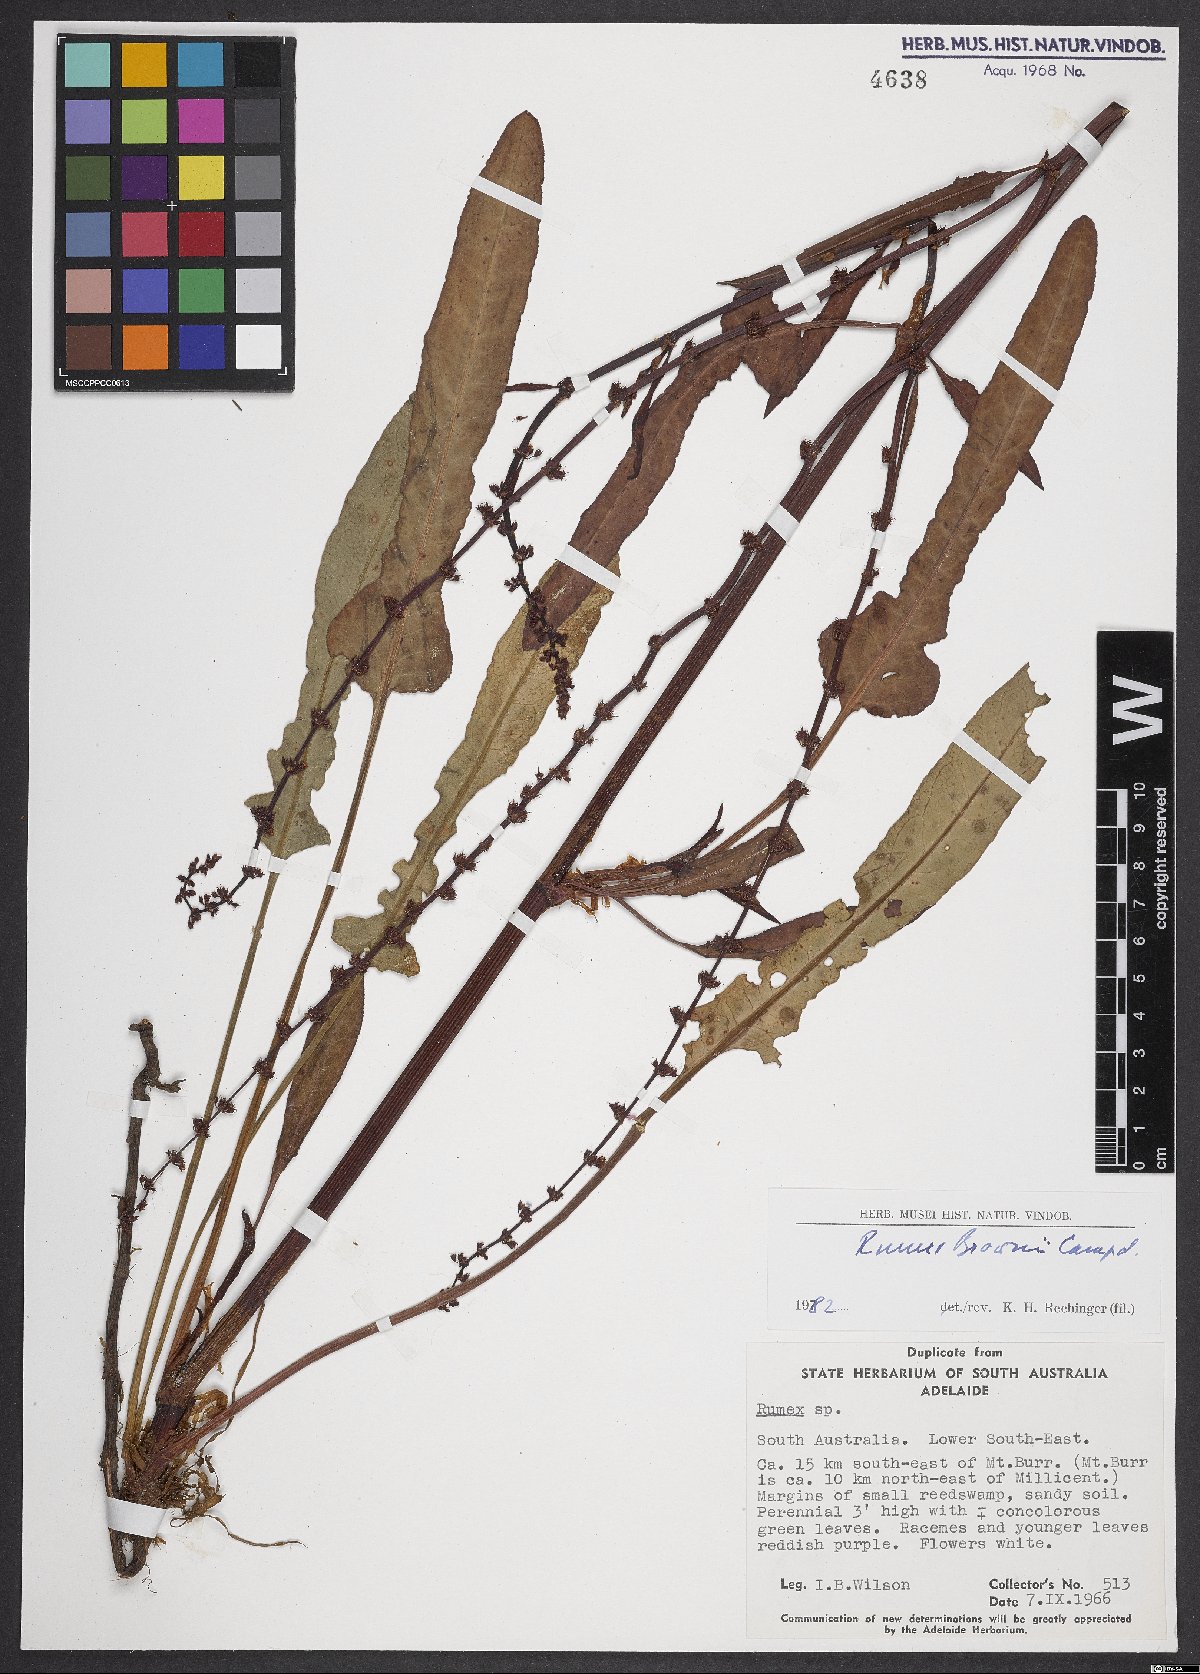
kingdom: Plantae
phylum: Tracheophyta
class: Magnoliopsida
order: Caryophyllales
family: Polygonaceae
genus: Rumex
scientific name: Rumex brownii
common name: Hooked dock
